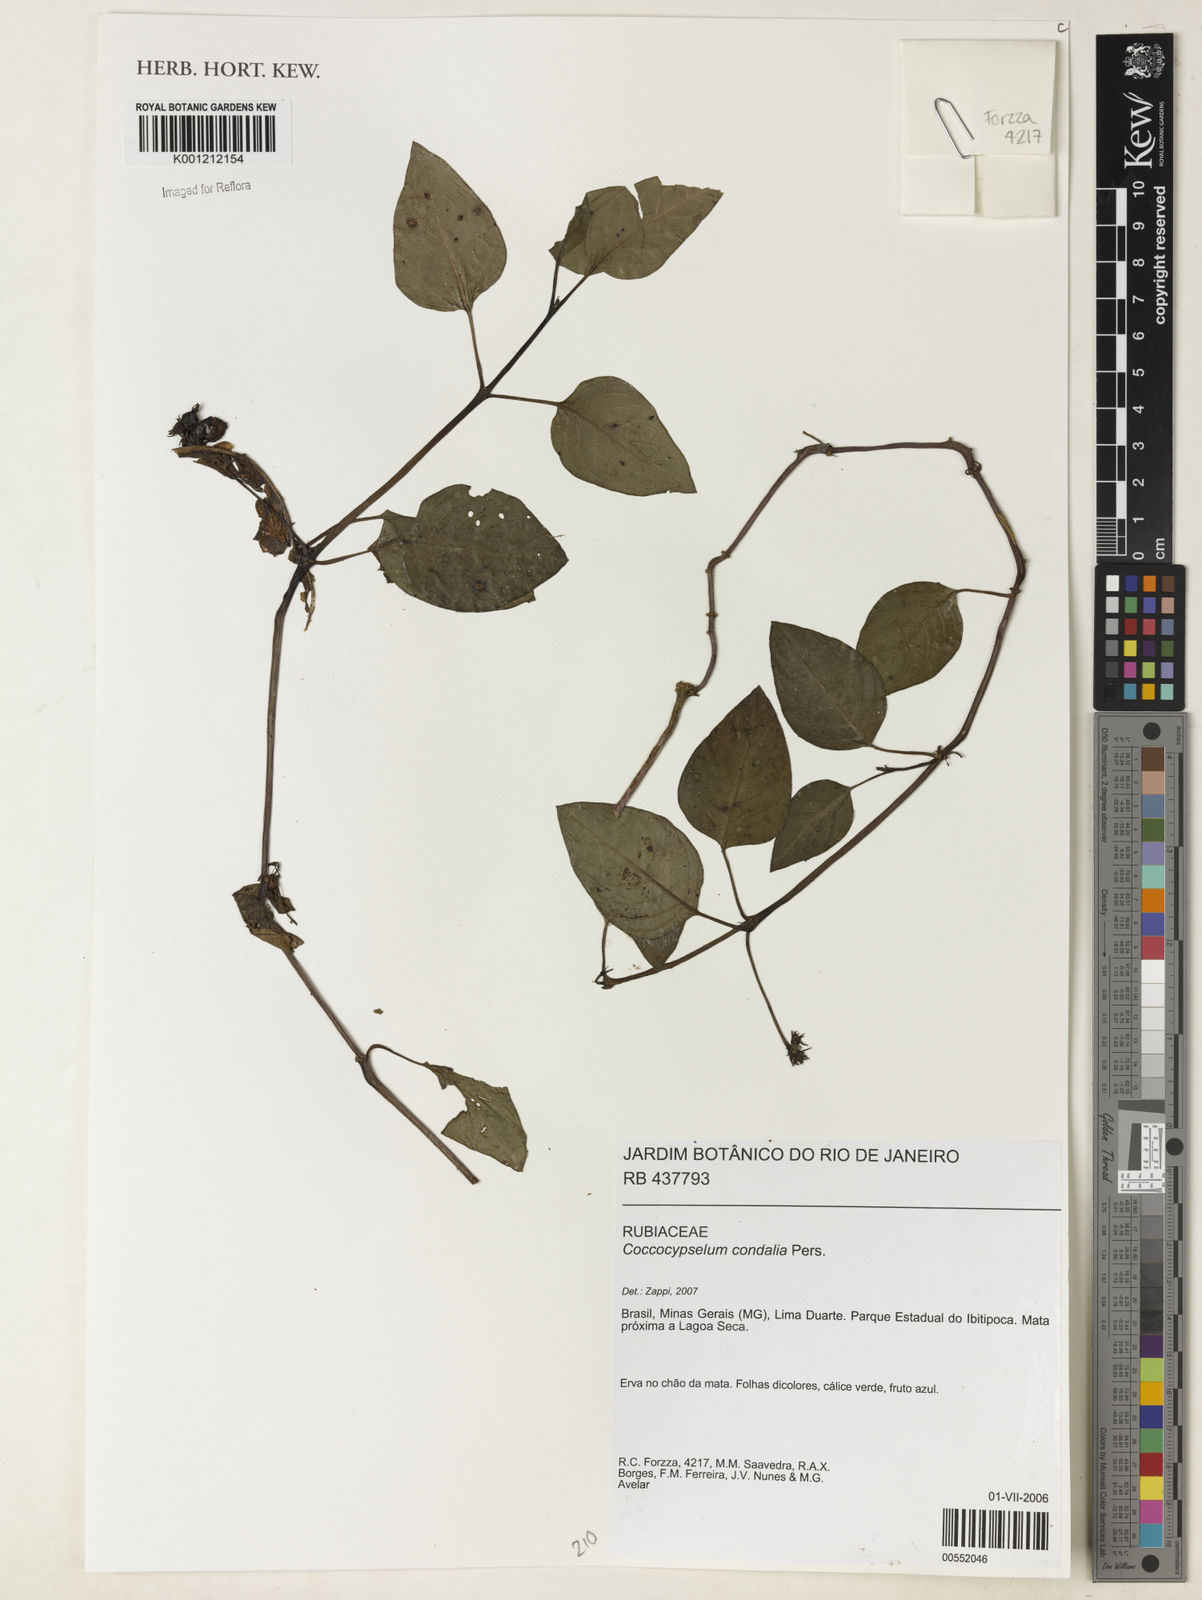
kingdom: Plantae
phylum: Tracheophyta
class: Magnoliopsida
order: Gentianales
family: Rubiaceae
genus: Coccocypselum
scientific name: Coccocypselum condalia
